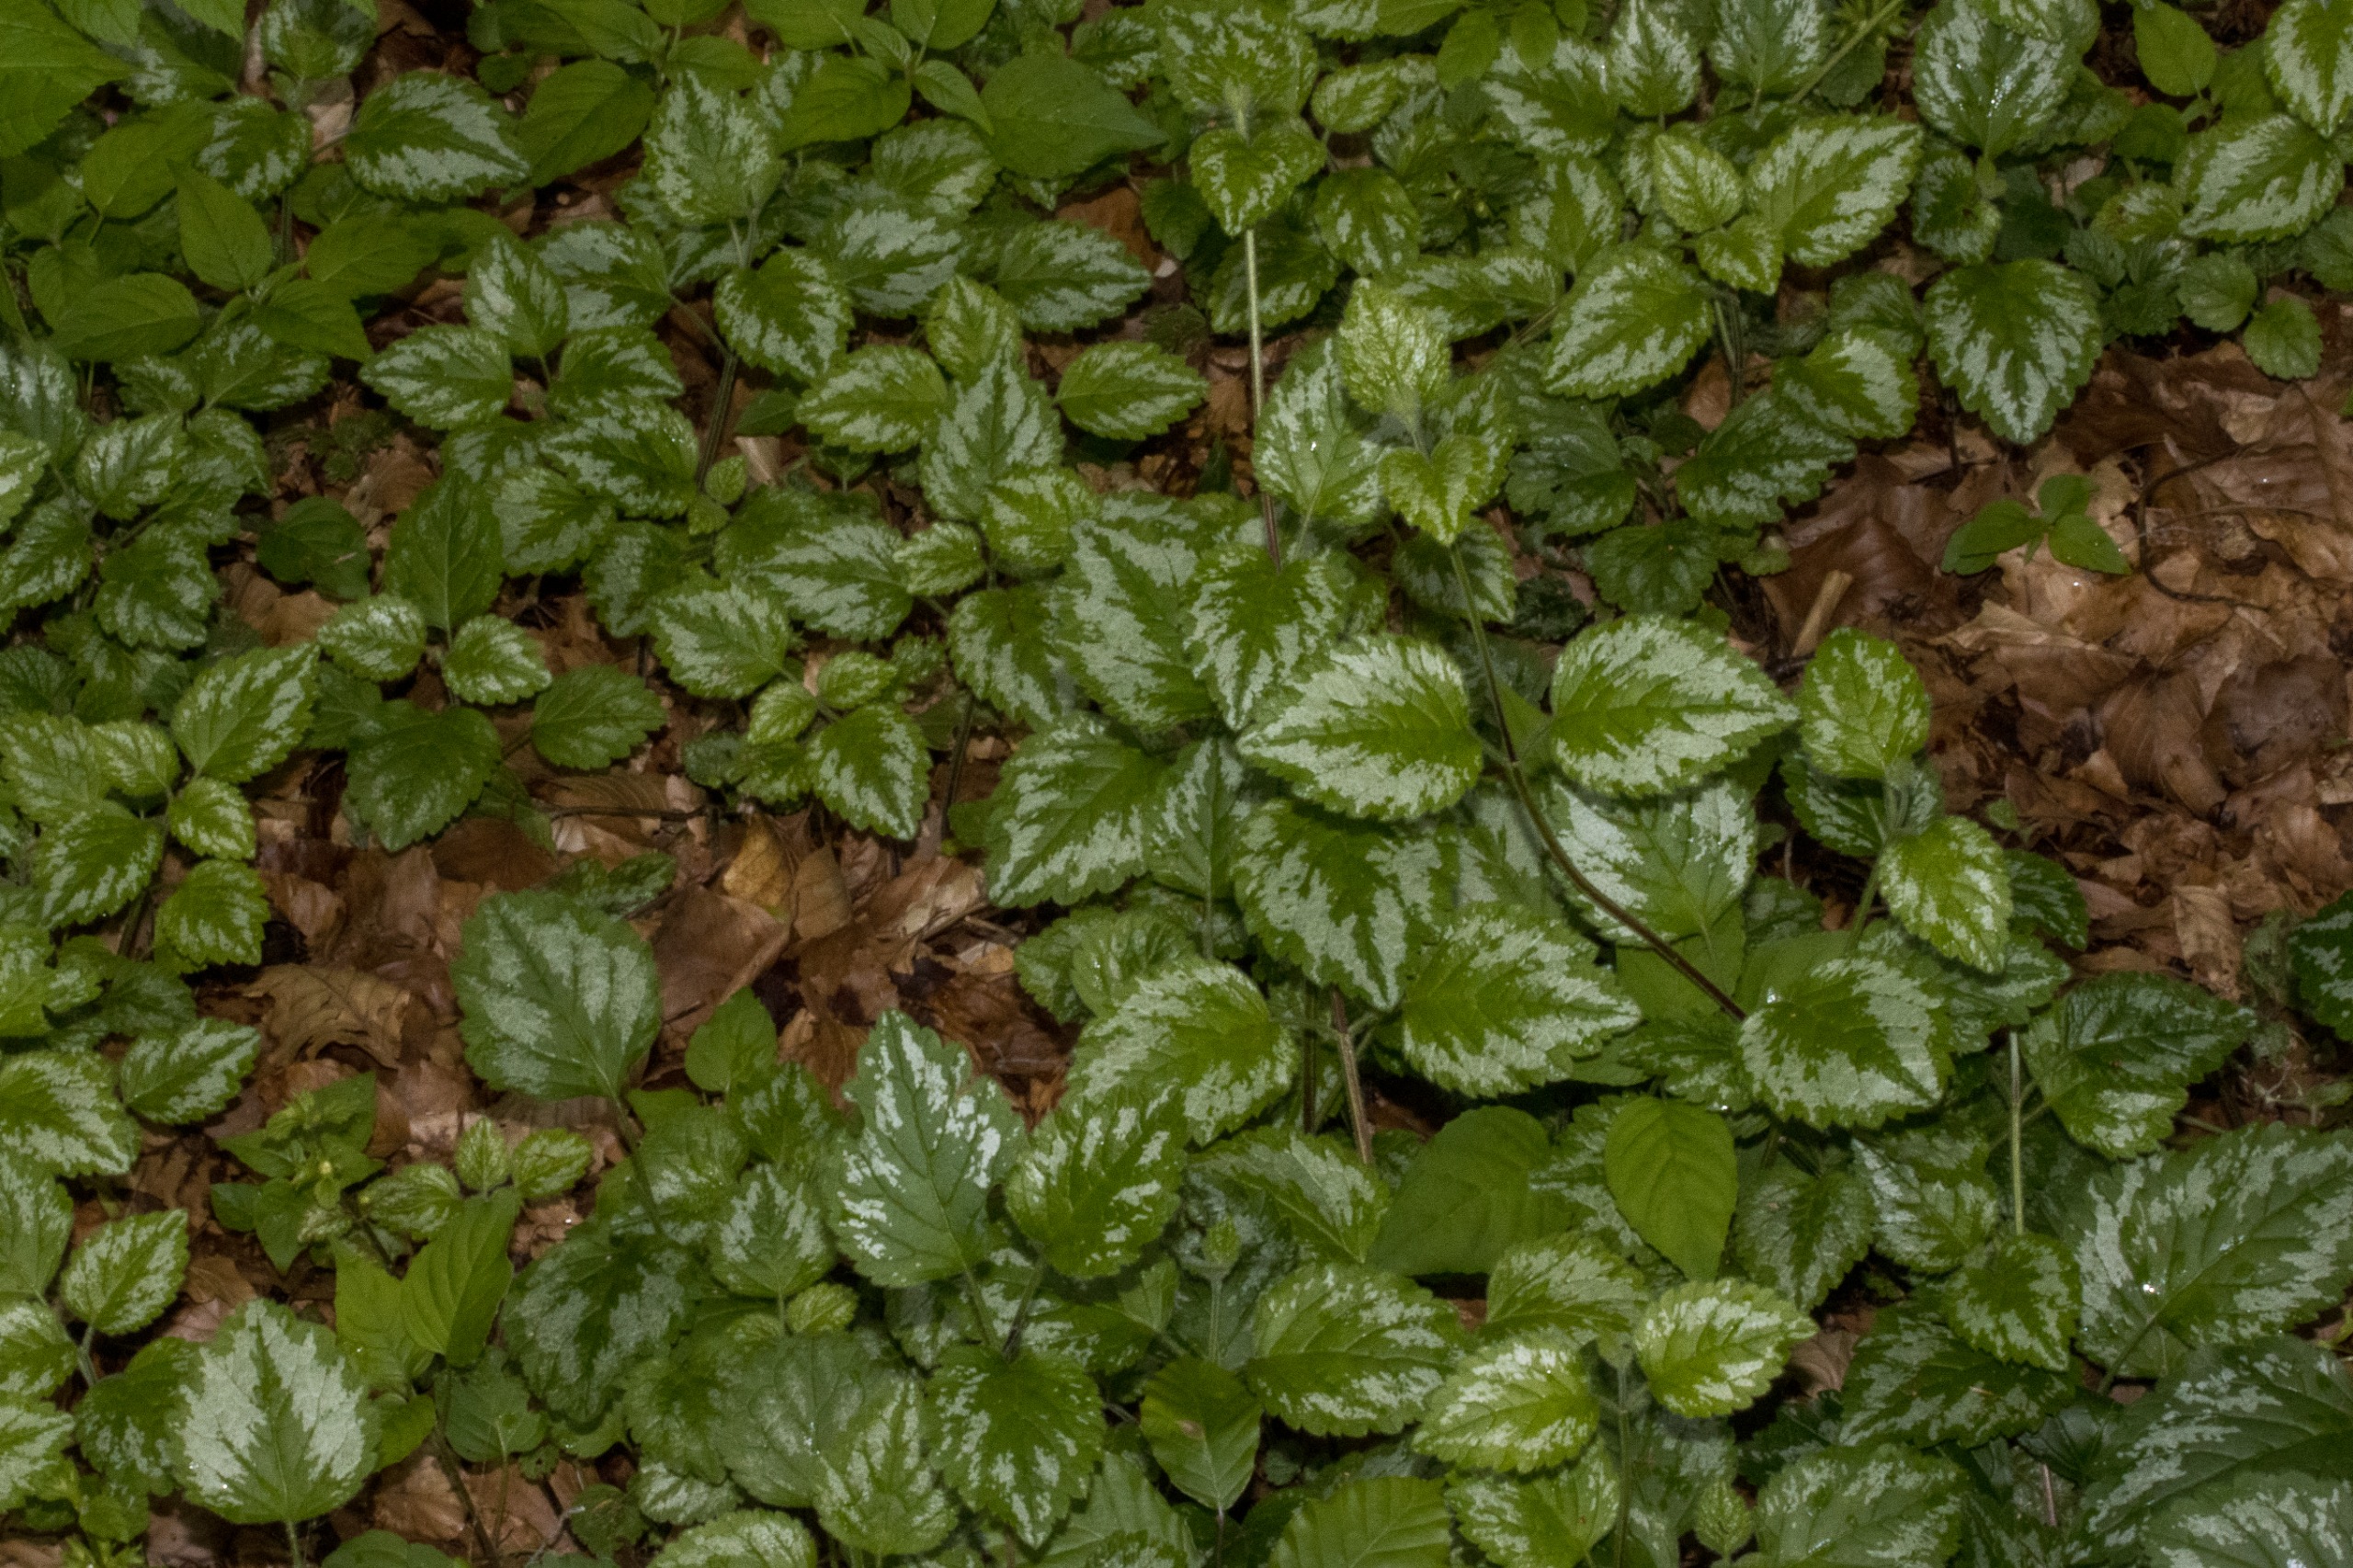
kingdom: Plantae
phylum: Tracheophyta
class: Magnoliopsida
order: Lamiales
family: Lamiaceae
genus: Lamium
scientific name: Lamium galeobdolon
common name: Have-guldnælde
